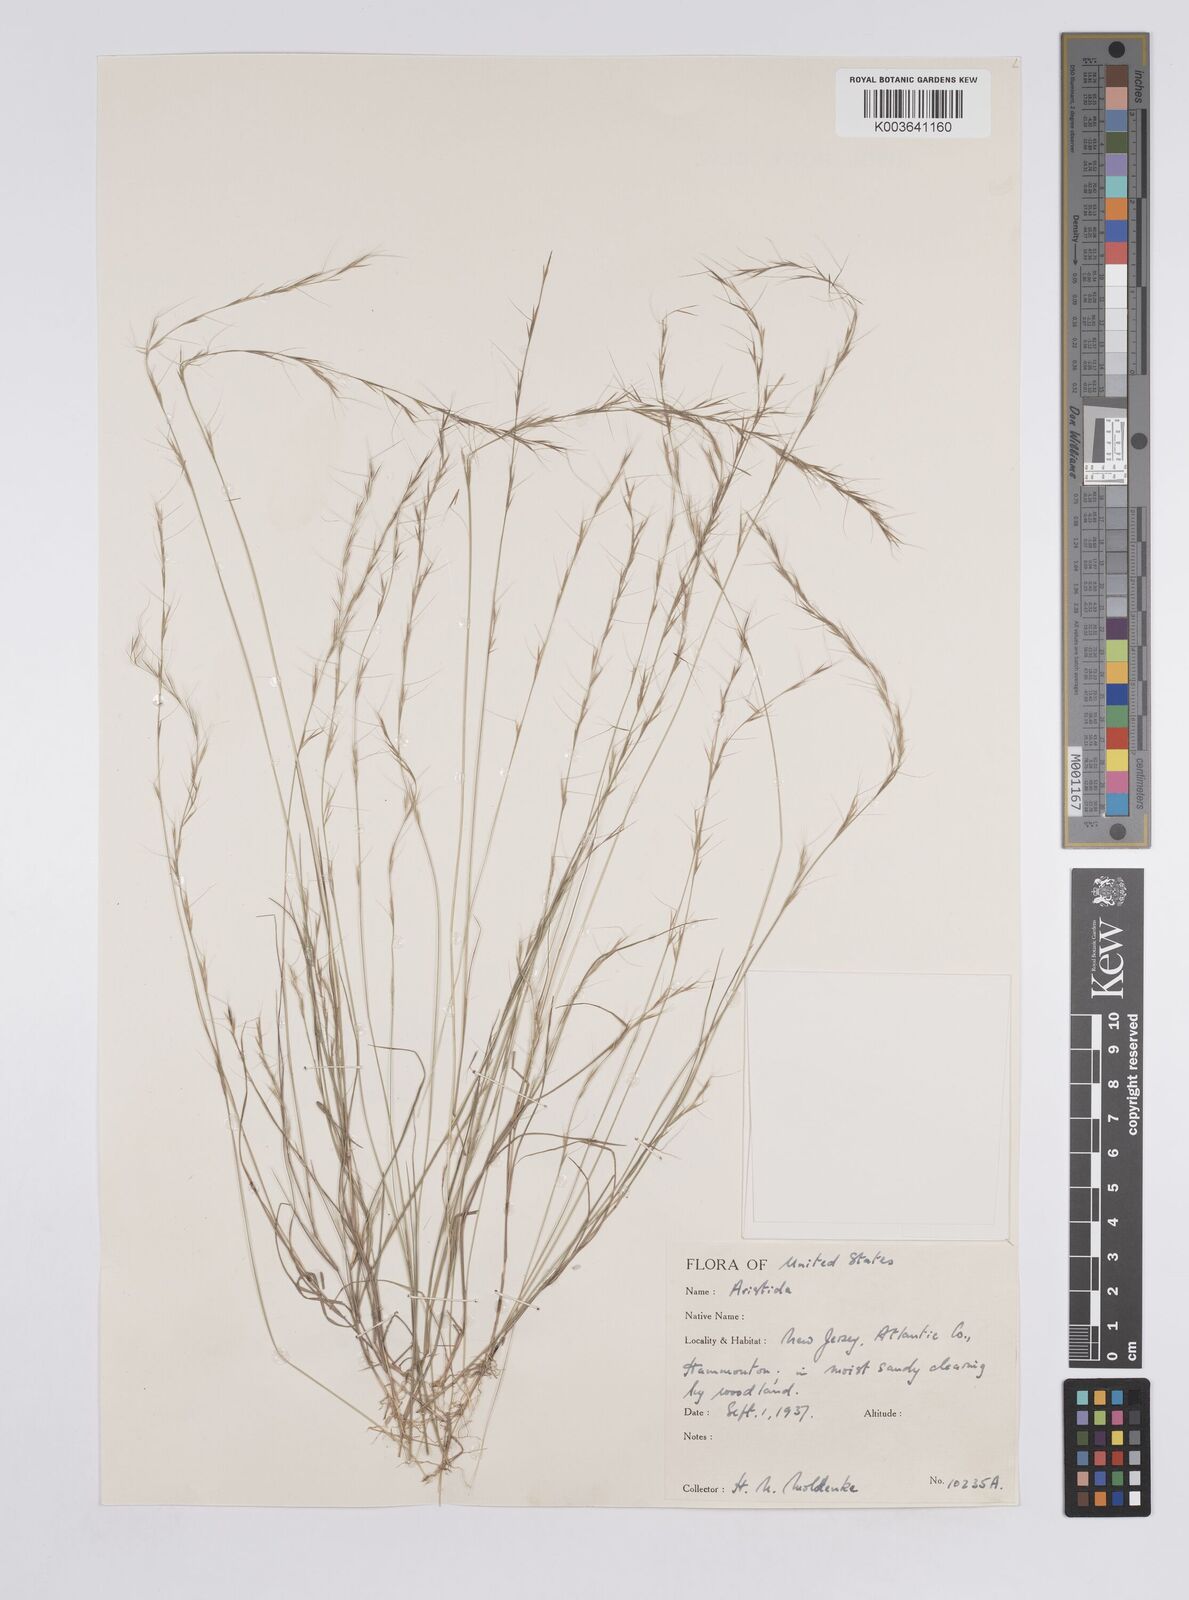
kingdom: Plantae
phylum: Tracheophyta
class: Liliopsida
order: Poales
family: Poaceae
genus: Aristida
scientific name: Aristida
